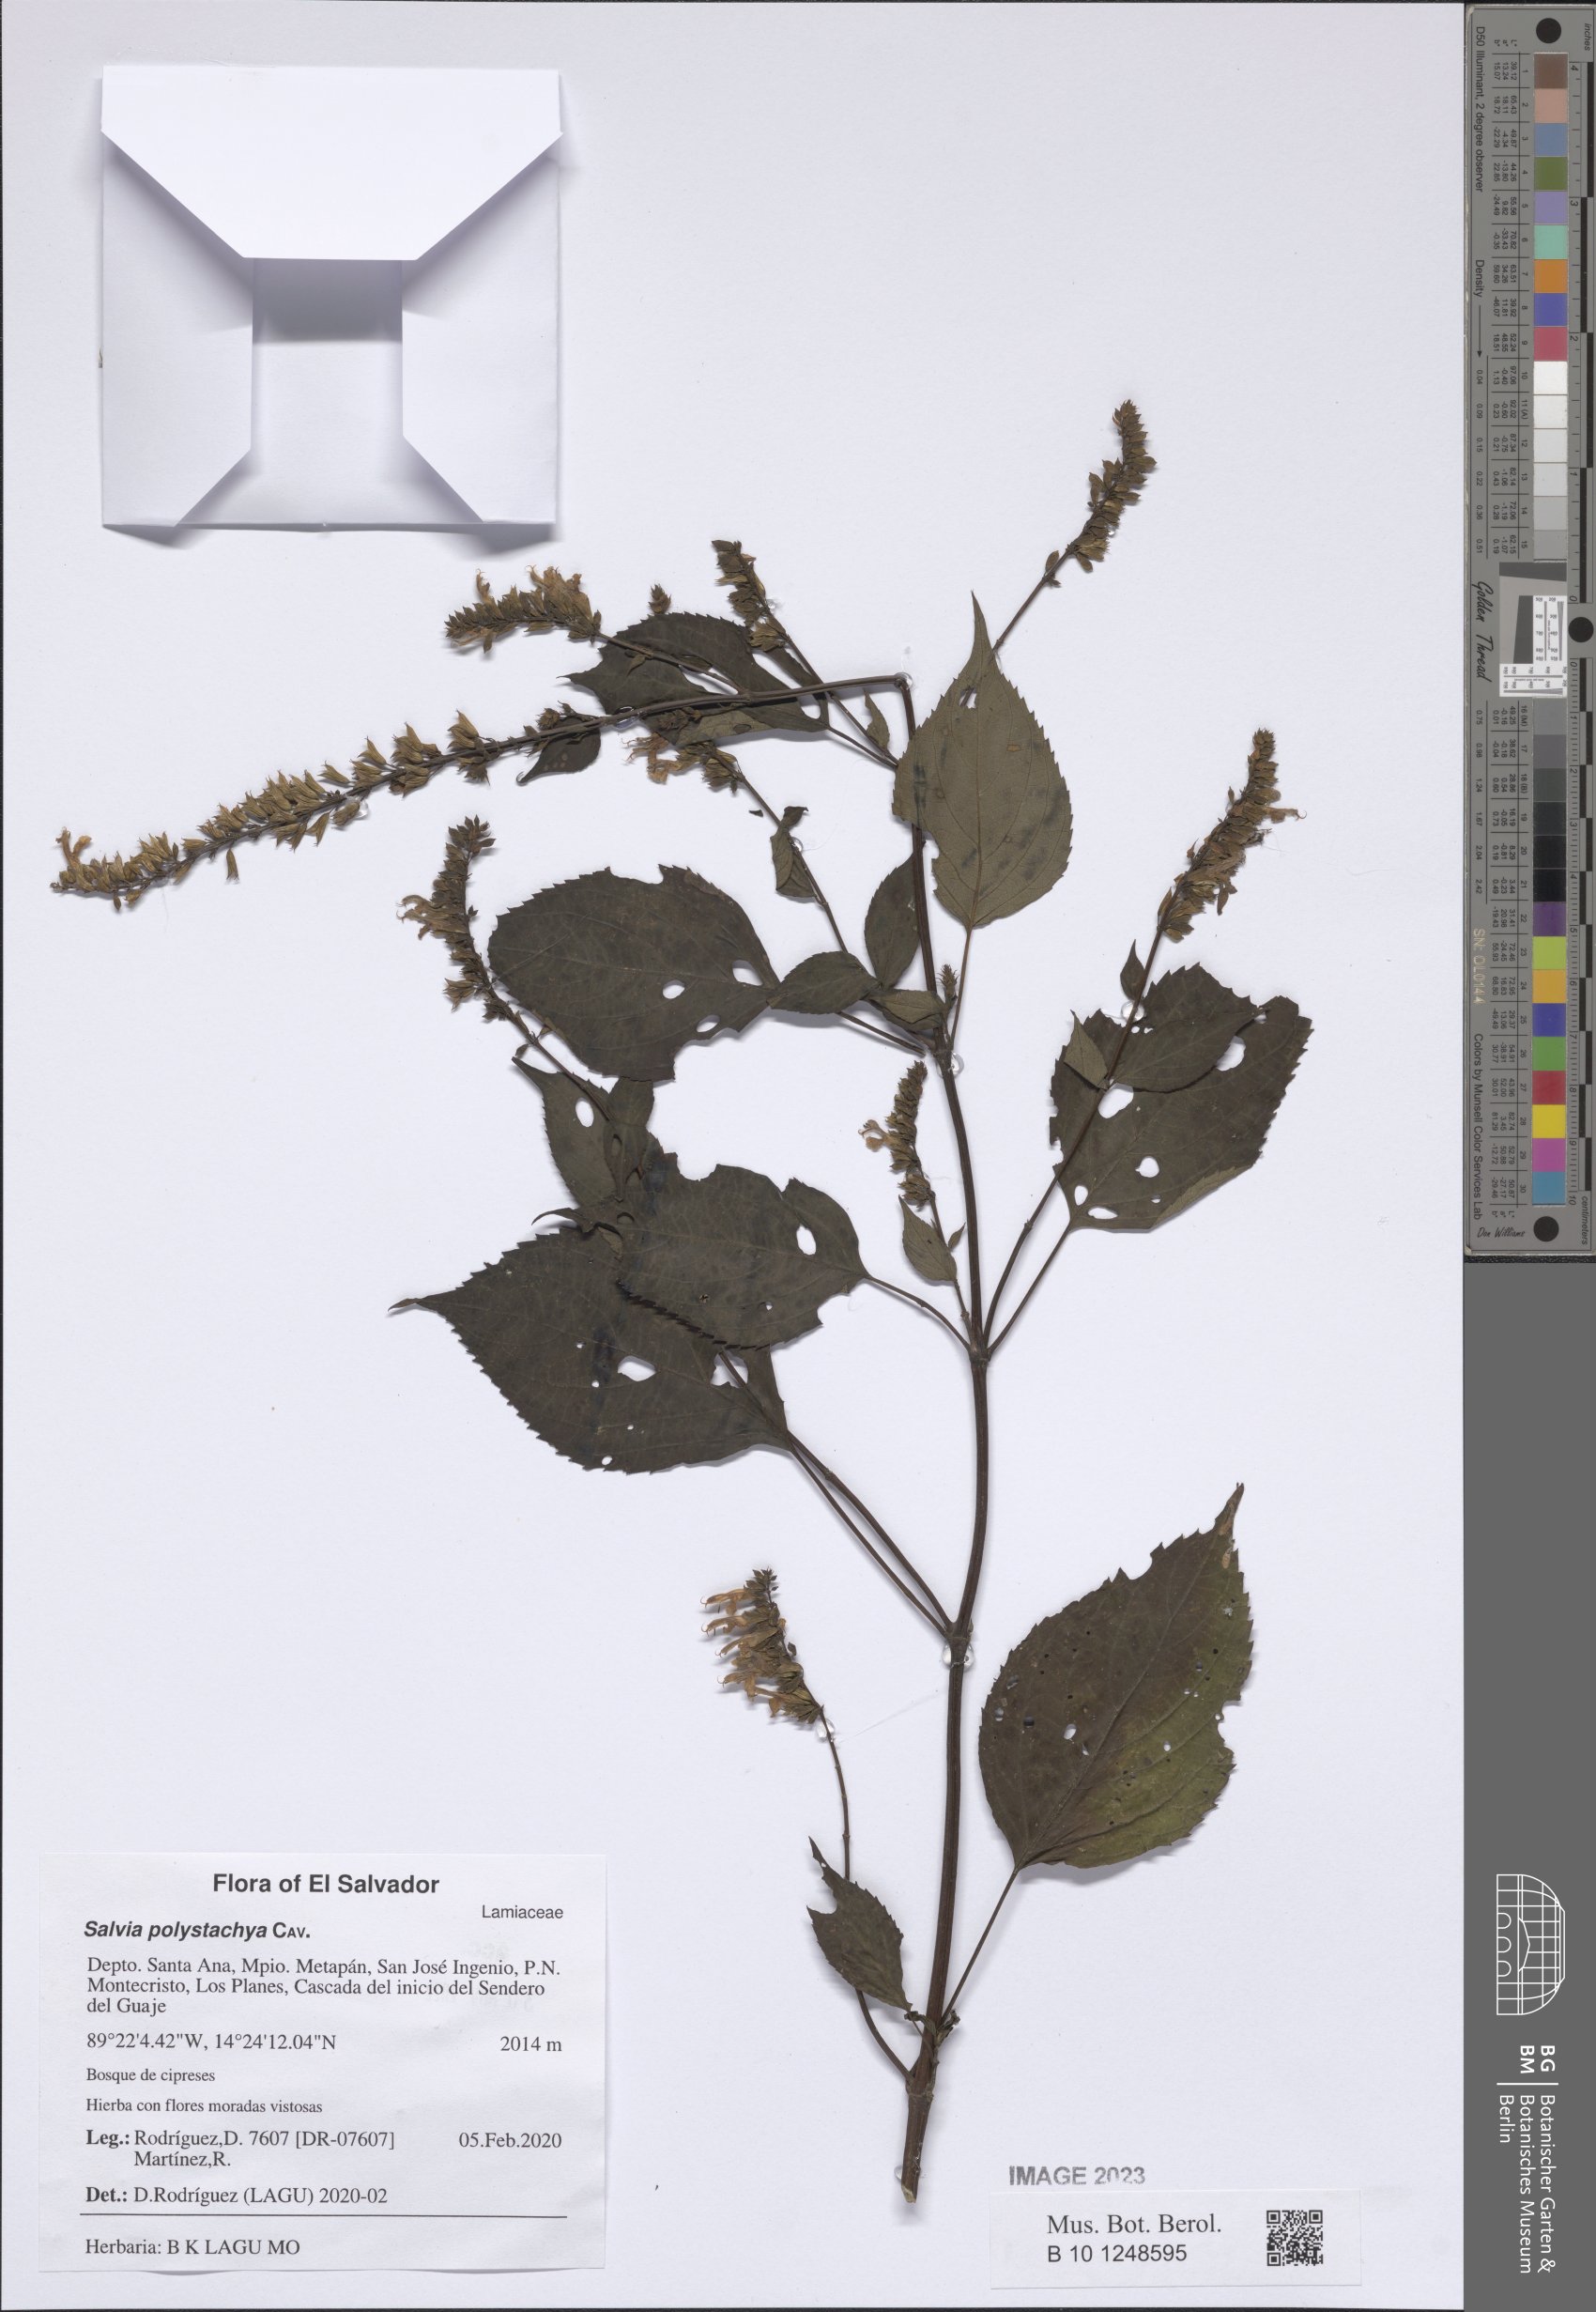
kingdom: Plantae
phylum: Tracheophyta
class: Magnoliopsida
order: Lamiales
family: Lamiaceae
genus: Salvia
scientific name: Salvia polystachia
